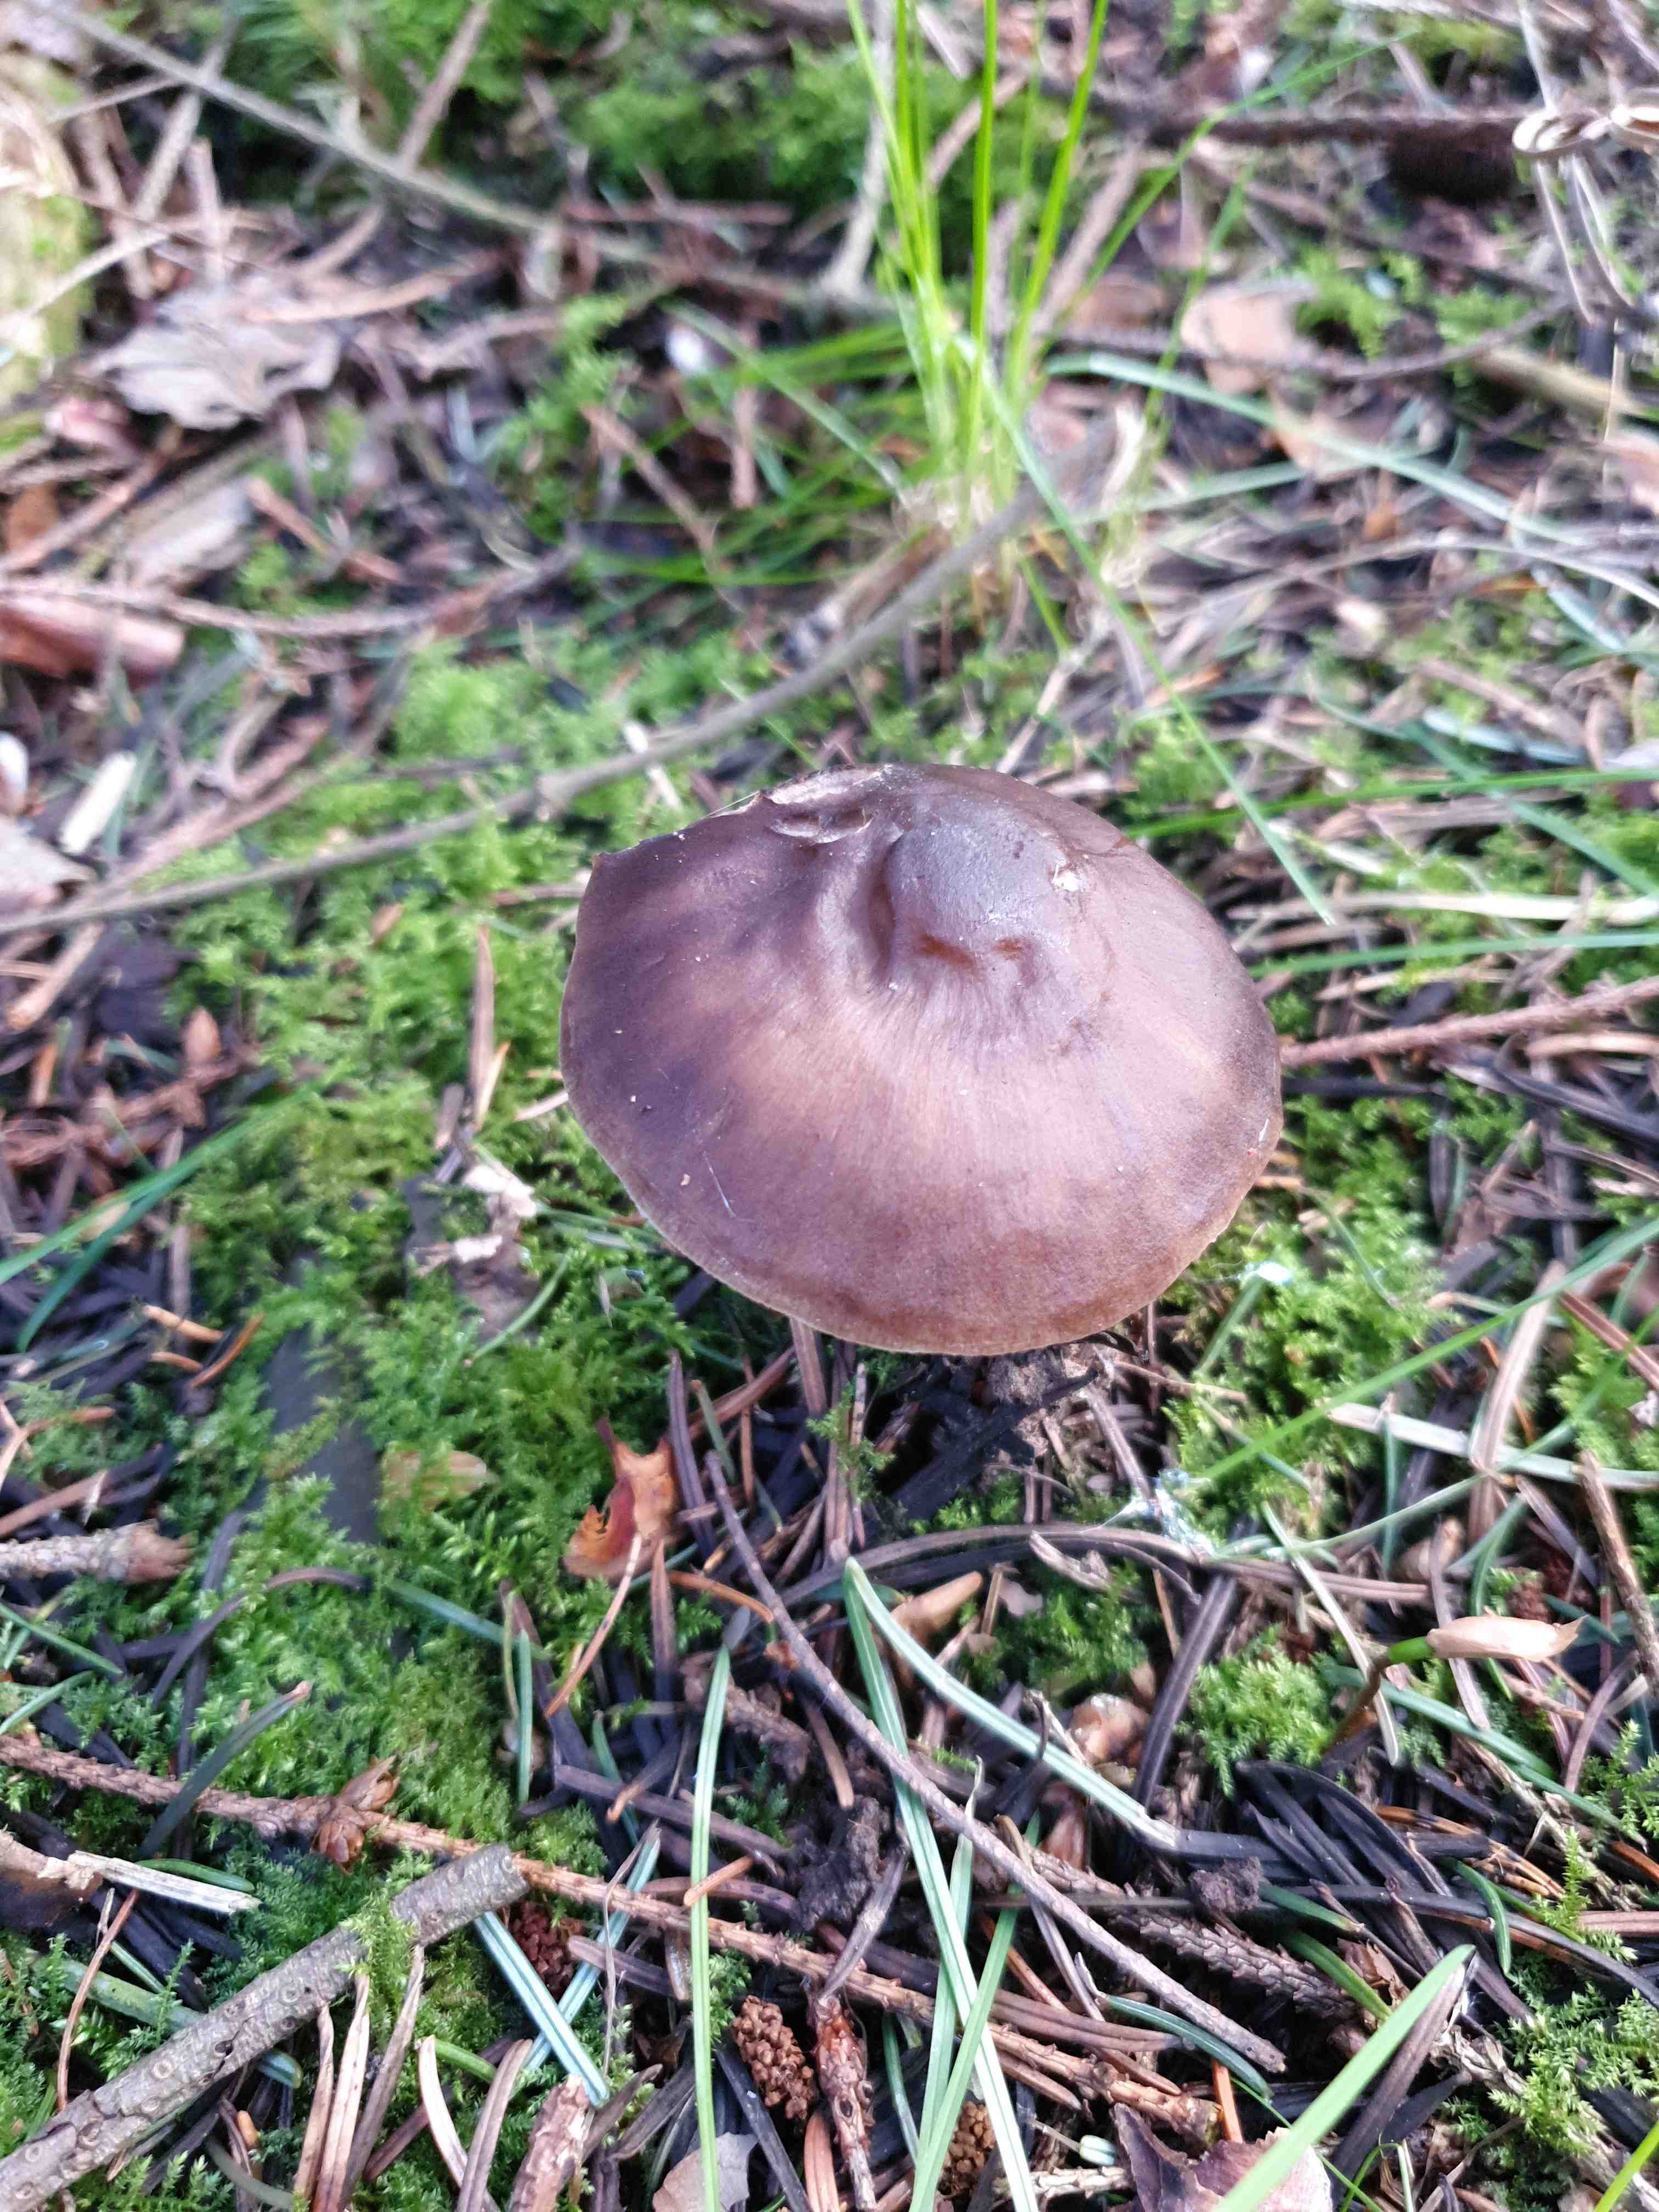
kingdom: Fungi
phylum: Basidiomycota
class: Agaricomycetes
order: Agaricales
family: Pluteaceae
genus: Pluteus
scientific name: Pluteus
